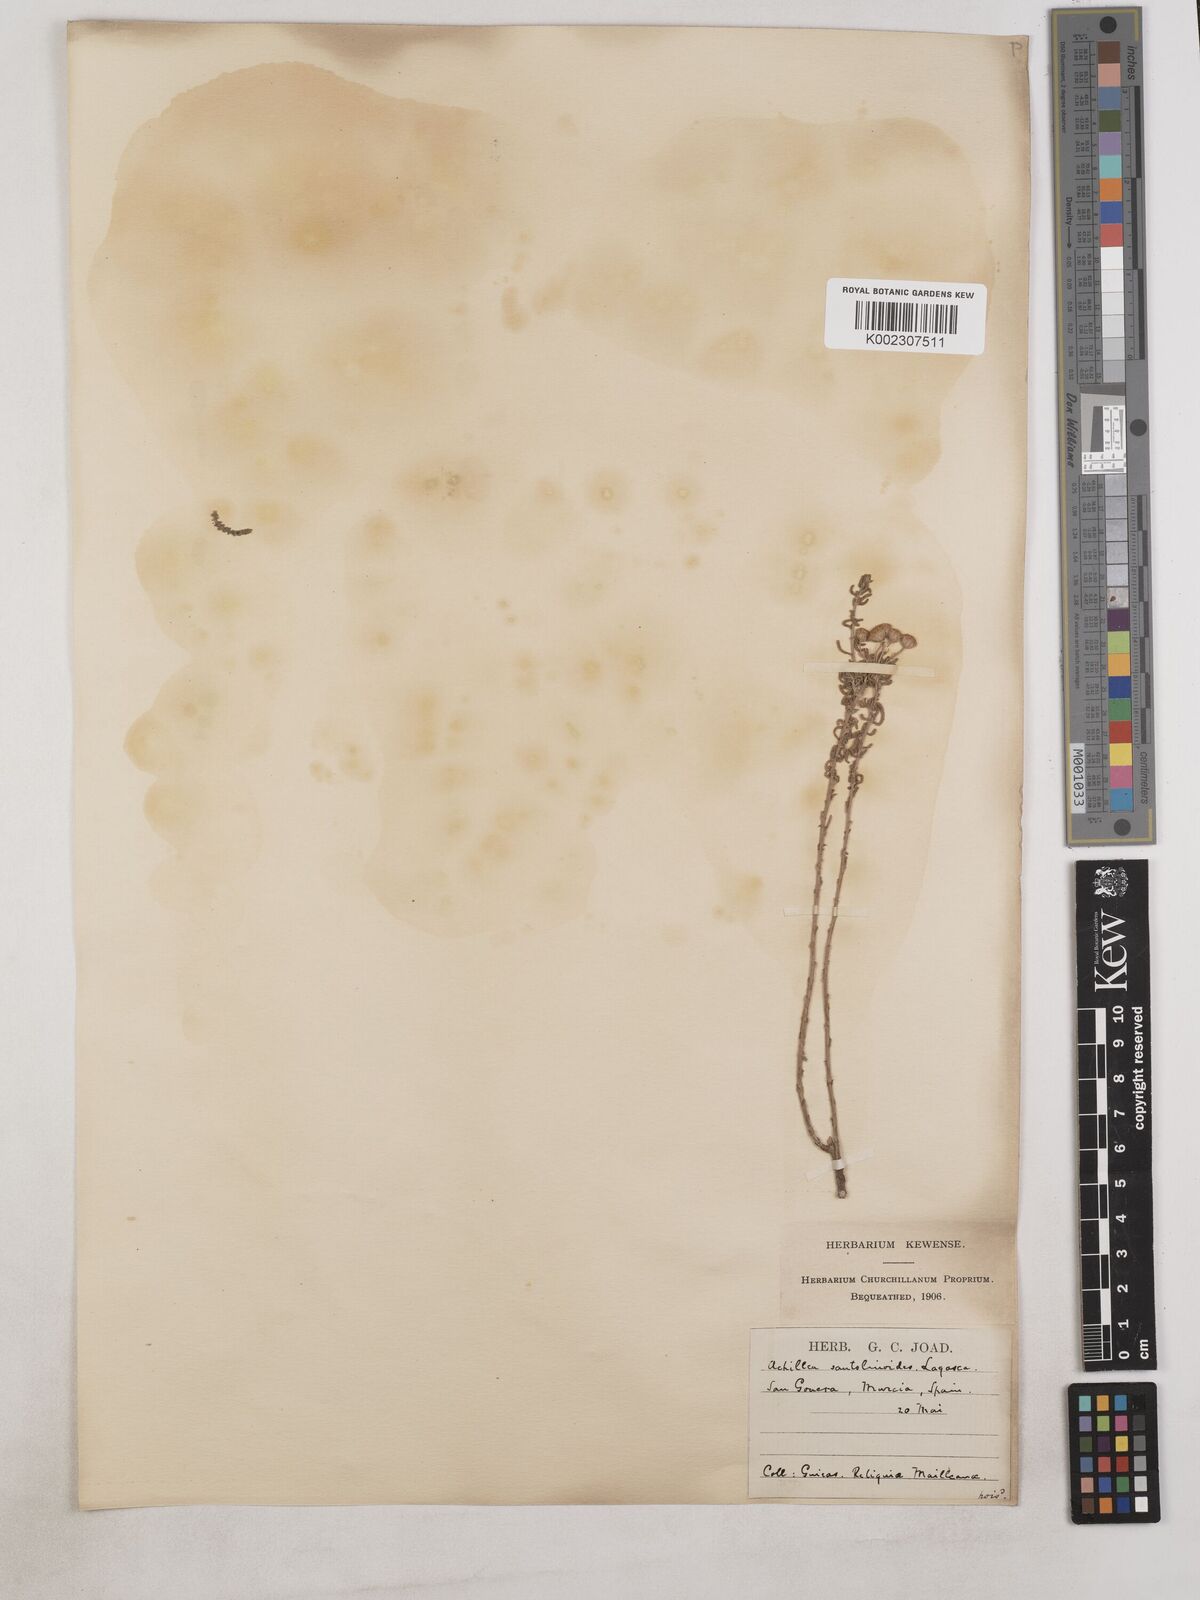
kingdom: Plantae
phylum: Tracheophyta
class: Magnoliopsida
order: Asterales
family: Asteraceae
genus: Achillea
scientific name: Achillea santolinoides
